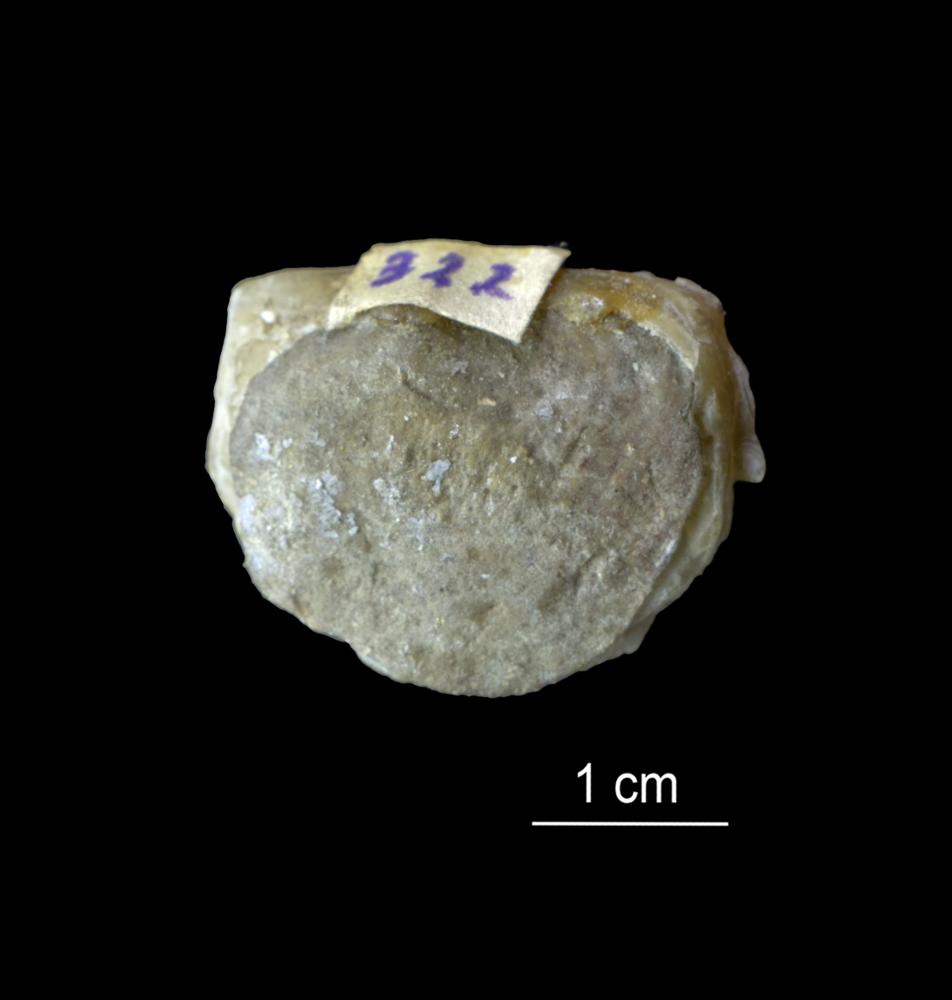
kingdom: Animalia
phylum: Mollusca
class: Bivalvia
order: Lucinida
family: Lucinidae
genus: Illionia
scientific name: Illionia Lucina prisca
